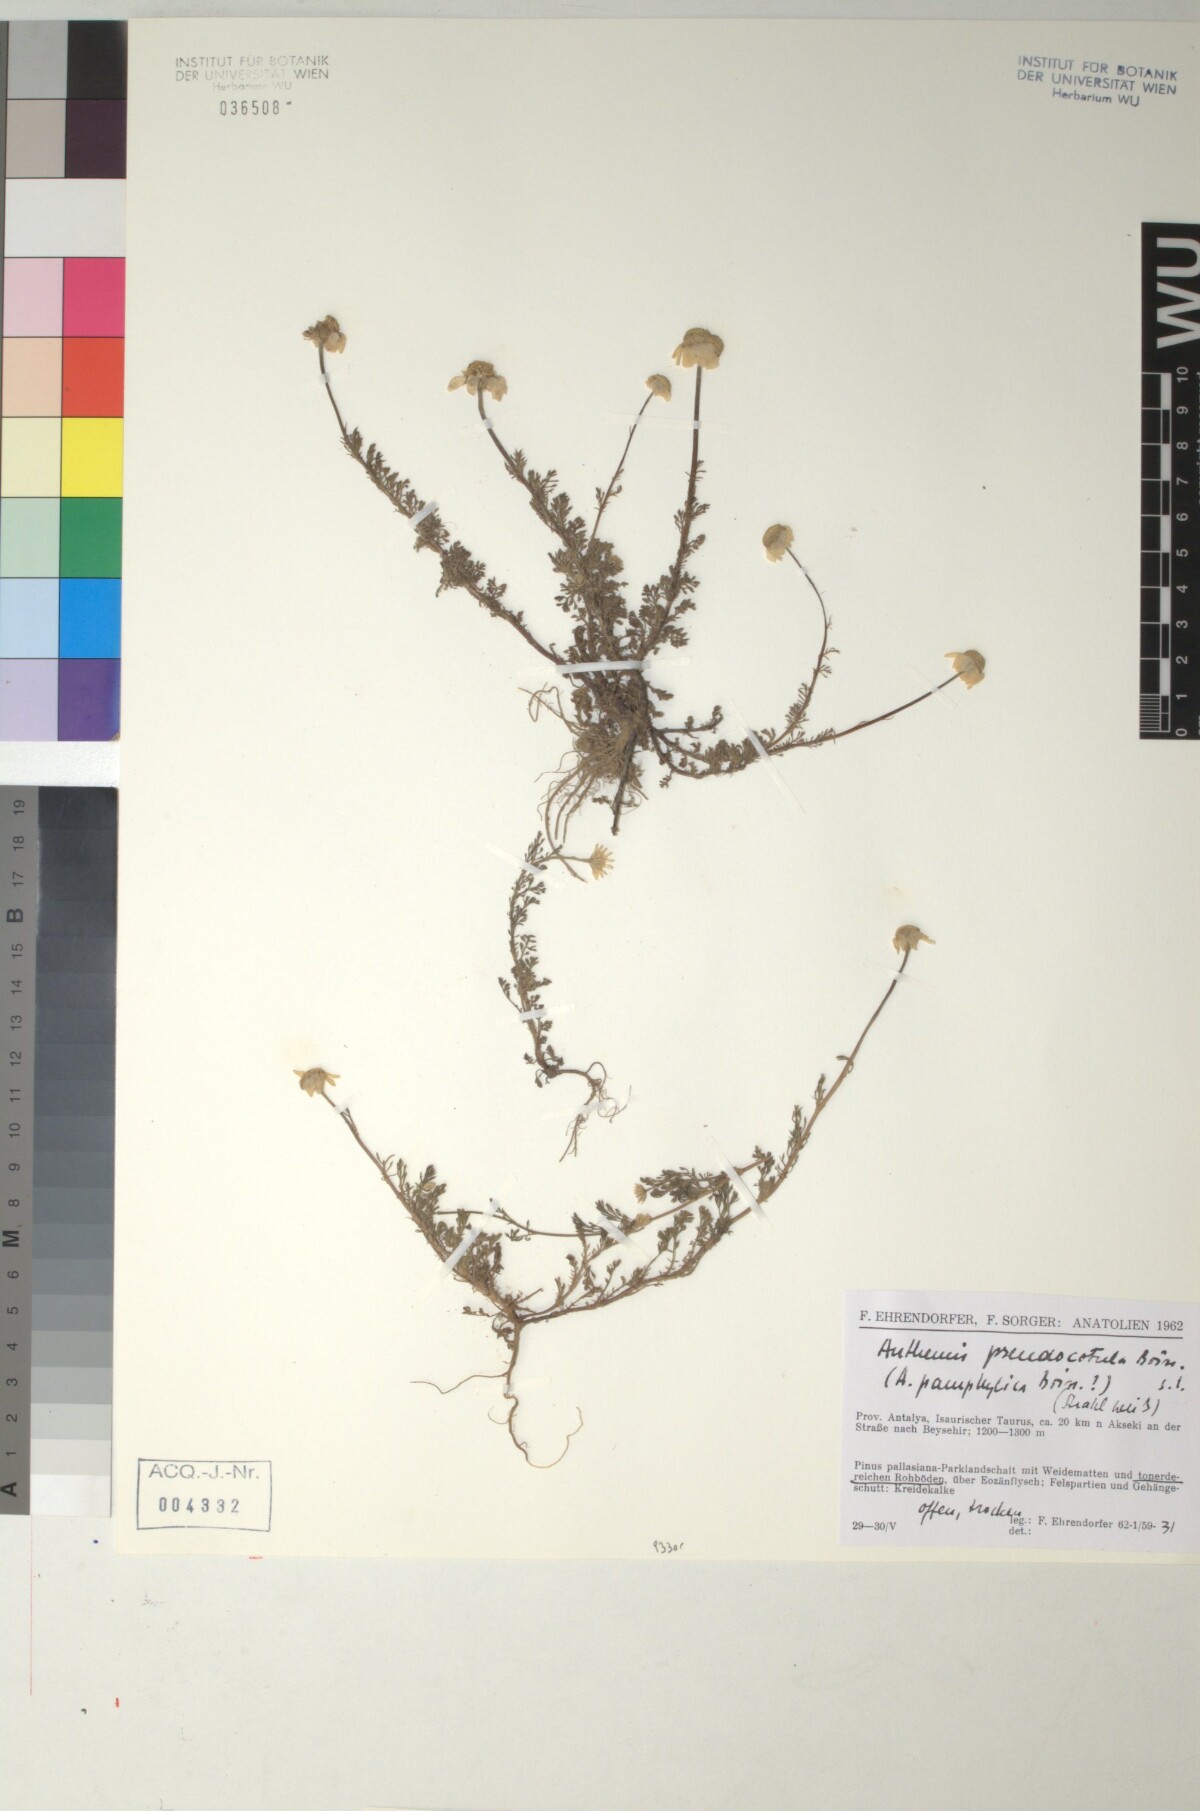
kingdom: Plantae
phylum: Tracheophyta
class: Magnoliopsida
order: Asterales
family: Asteraceae
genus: Anthemis
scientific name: Anthemis pseudocotula
